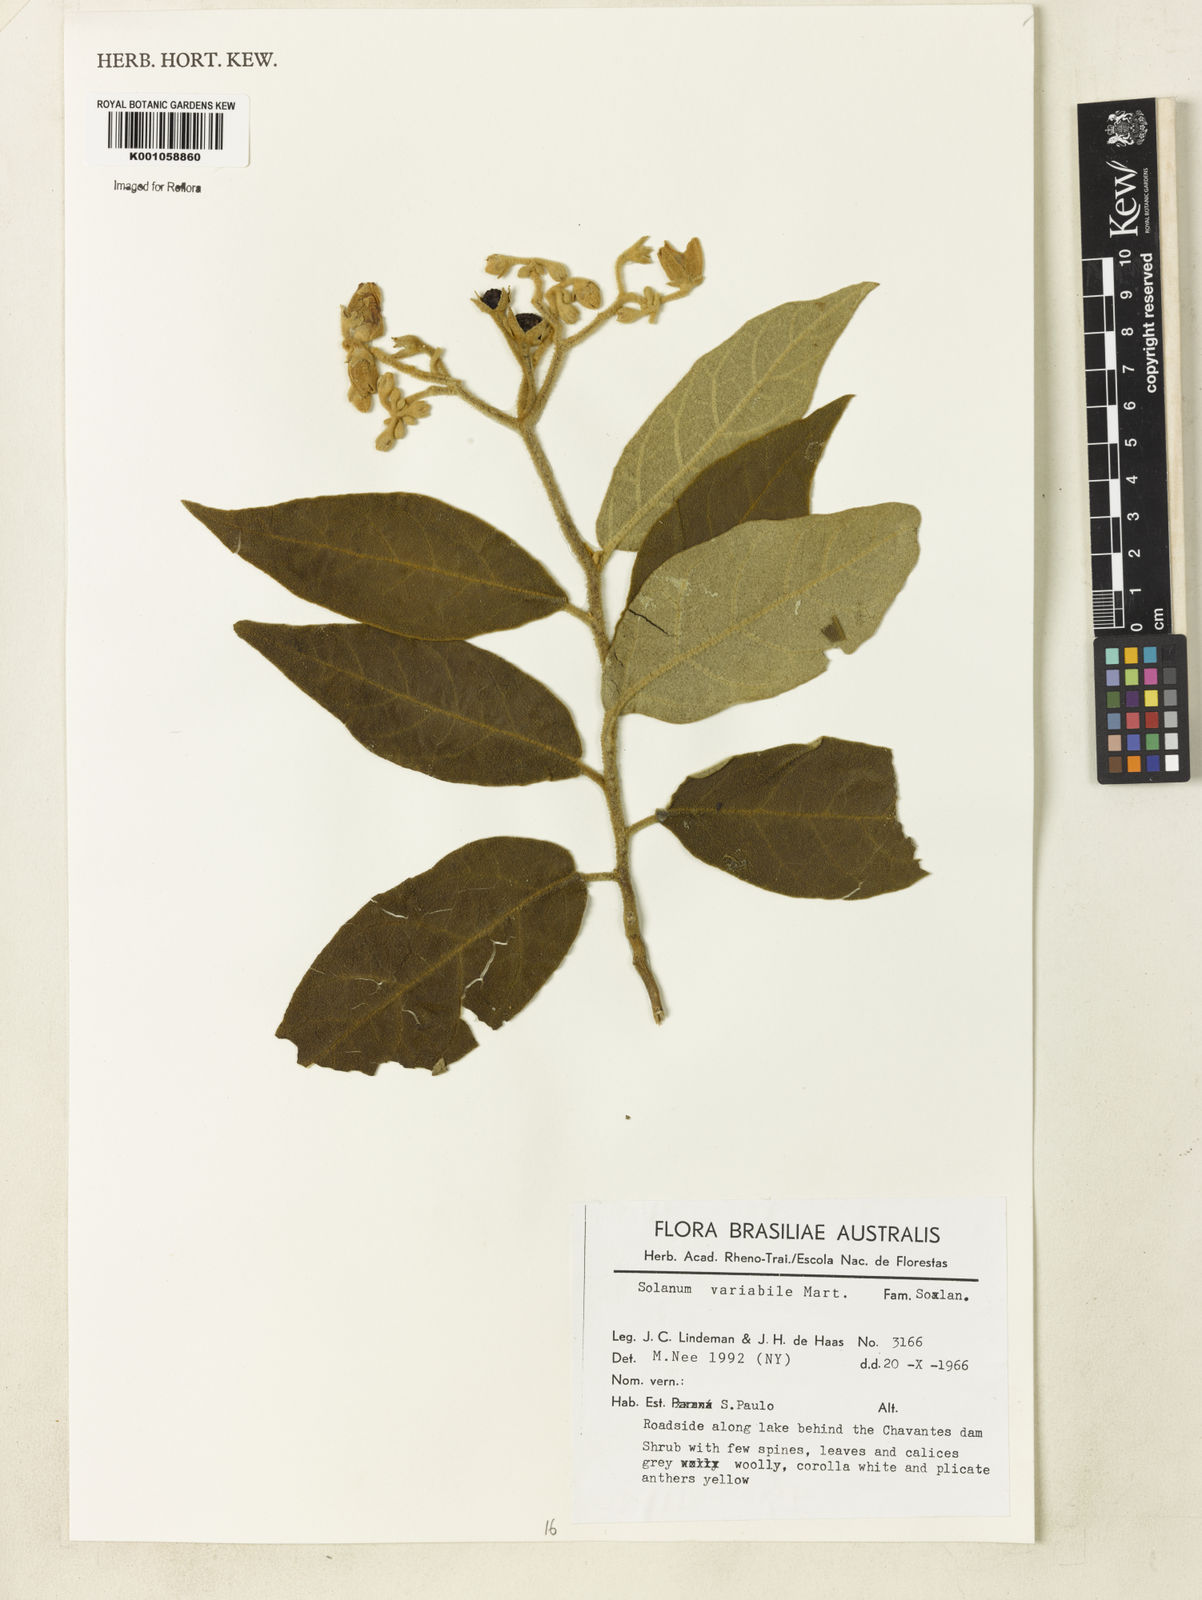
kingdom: Plantae
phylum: Tracheophyta
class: Magnoliopsida
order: Solanales
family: Solanaceae
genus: Solanum
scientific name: Solanum variabile
